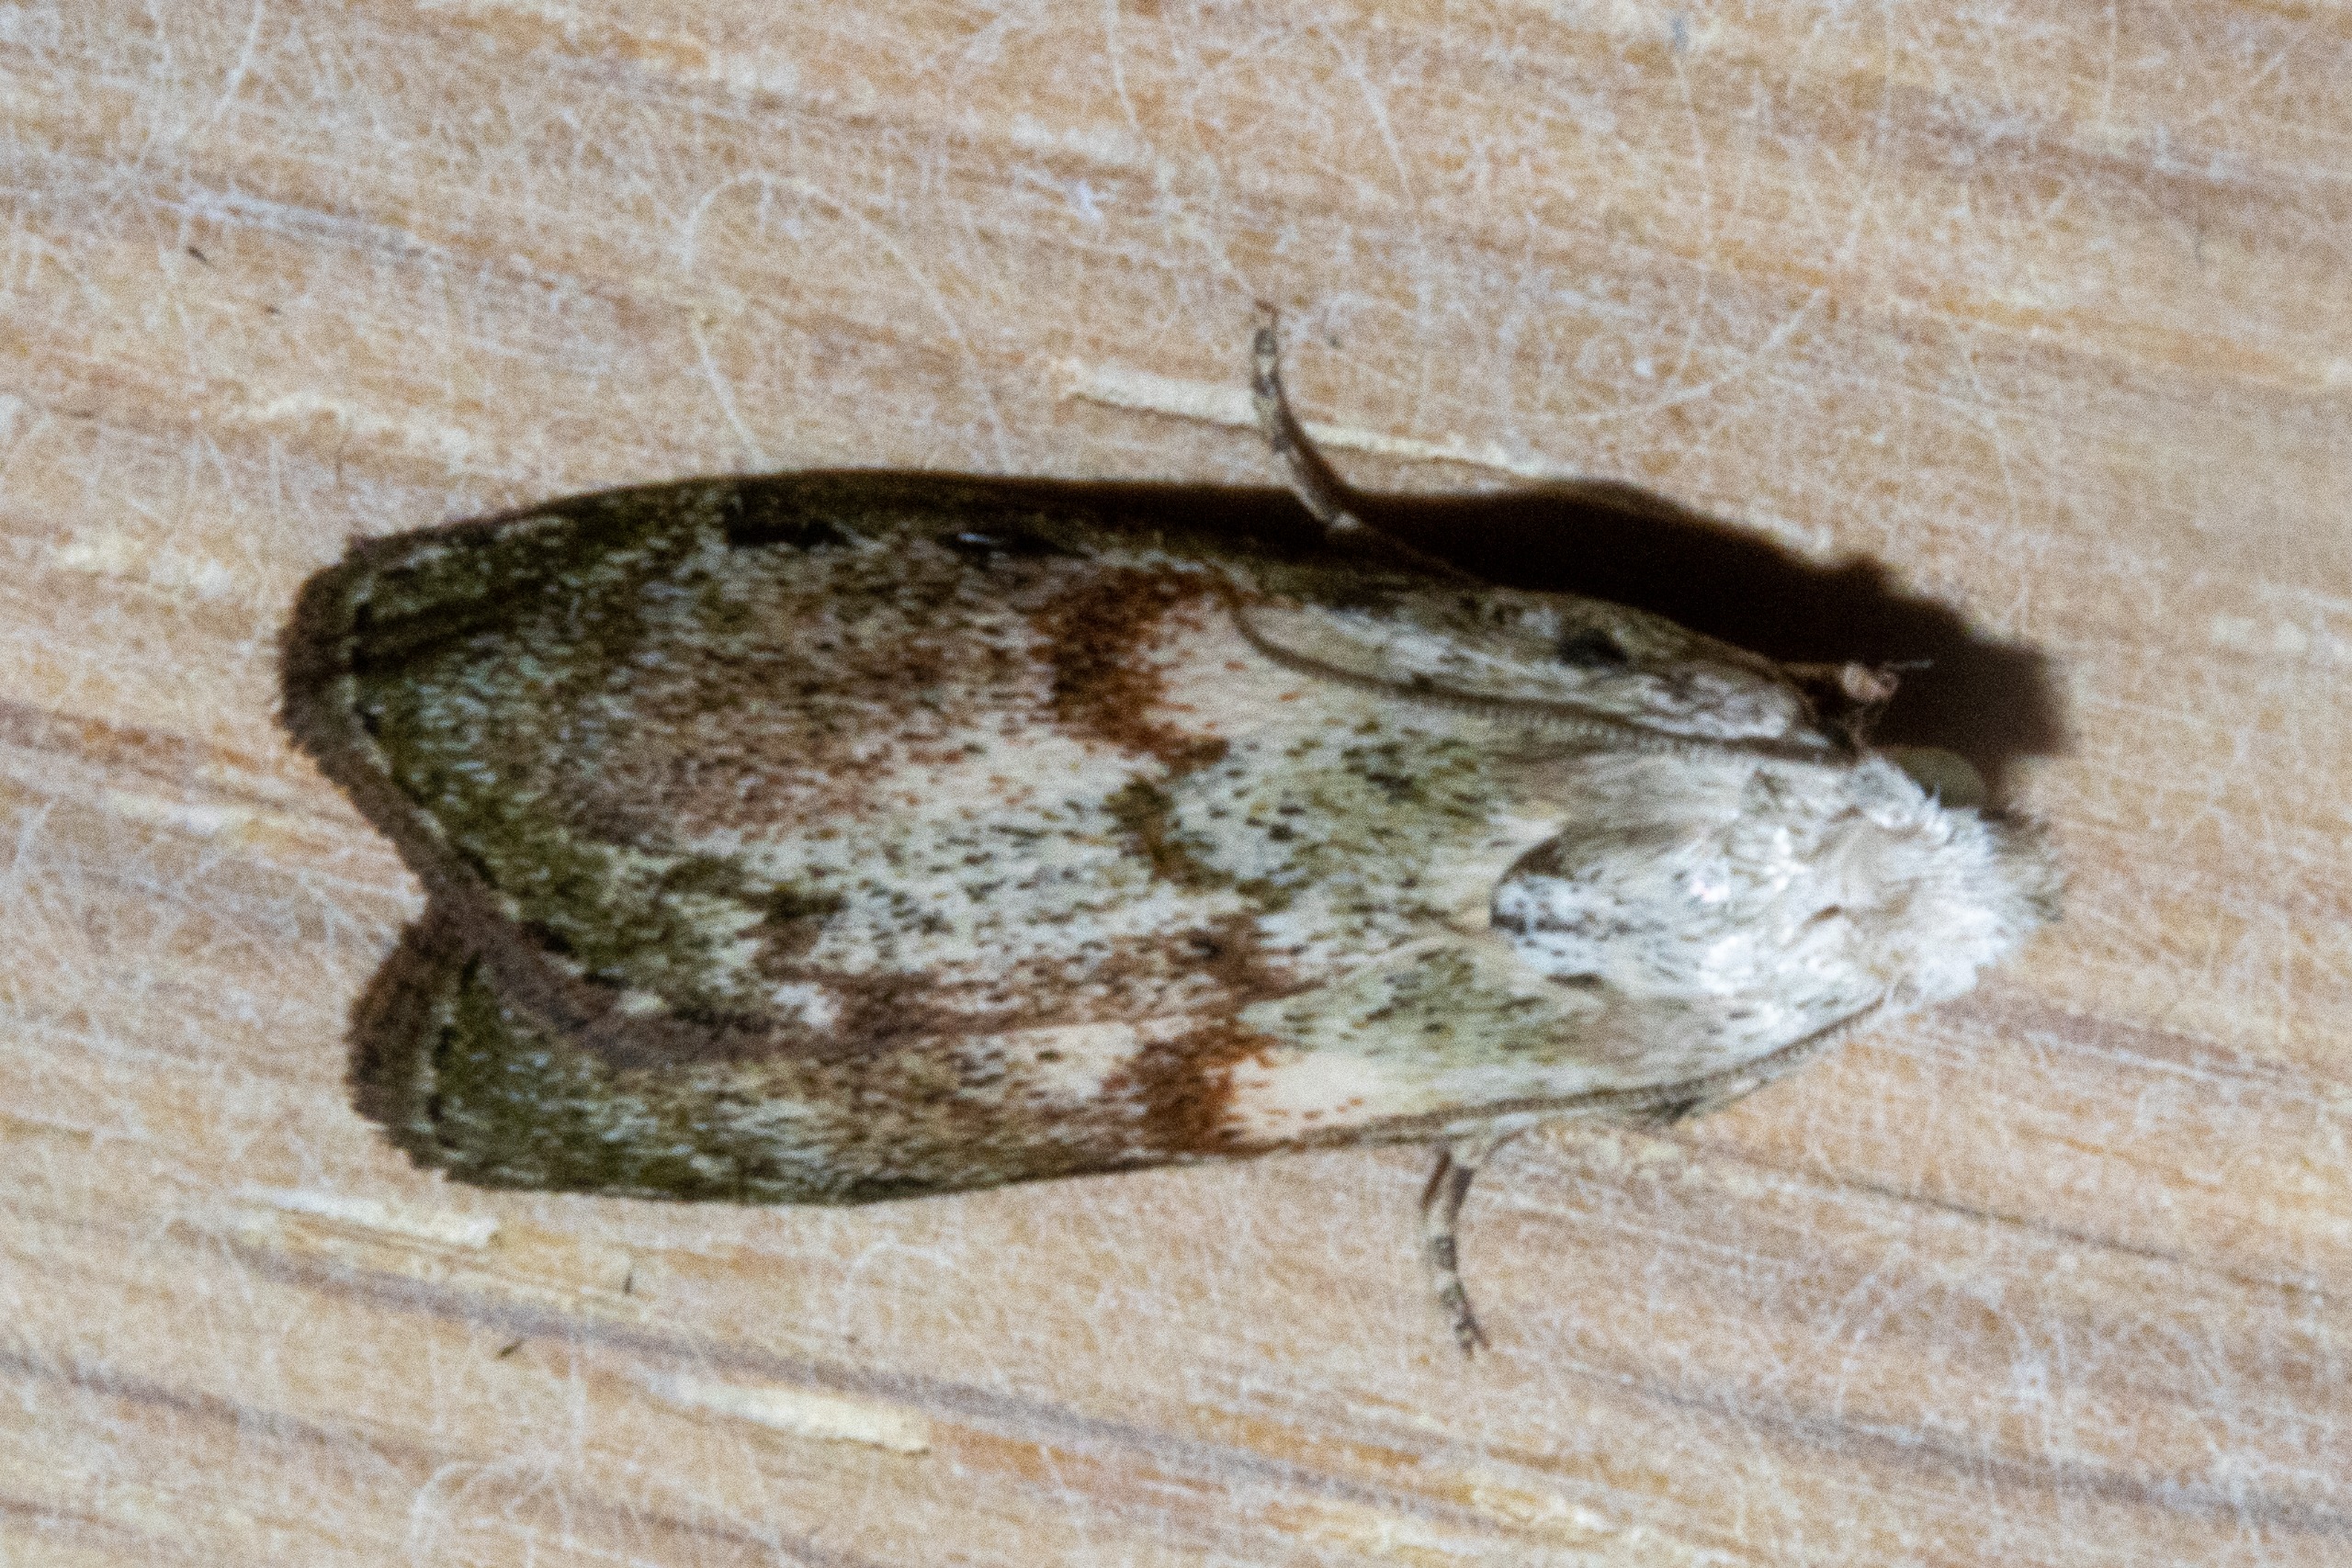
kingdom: Animalia
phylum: Arthropoda
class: Insecta
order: Lepidoptera
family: Pyralidae
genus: Aphomia
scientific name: Aphomia sociella
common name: Humlevoksmøl
